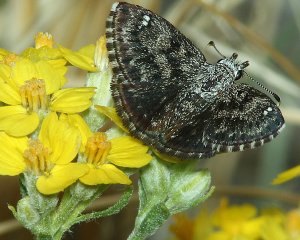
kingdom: Animalia
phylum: Arthropoda
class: Insecta
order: Lepidoptera
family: Hesperiidae
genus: Hesperopsis
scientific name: Hesperopsis alpheus
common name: Saltbush Sootywing
